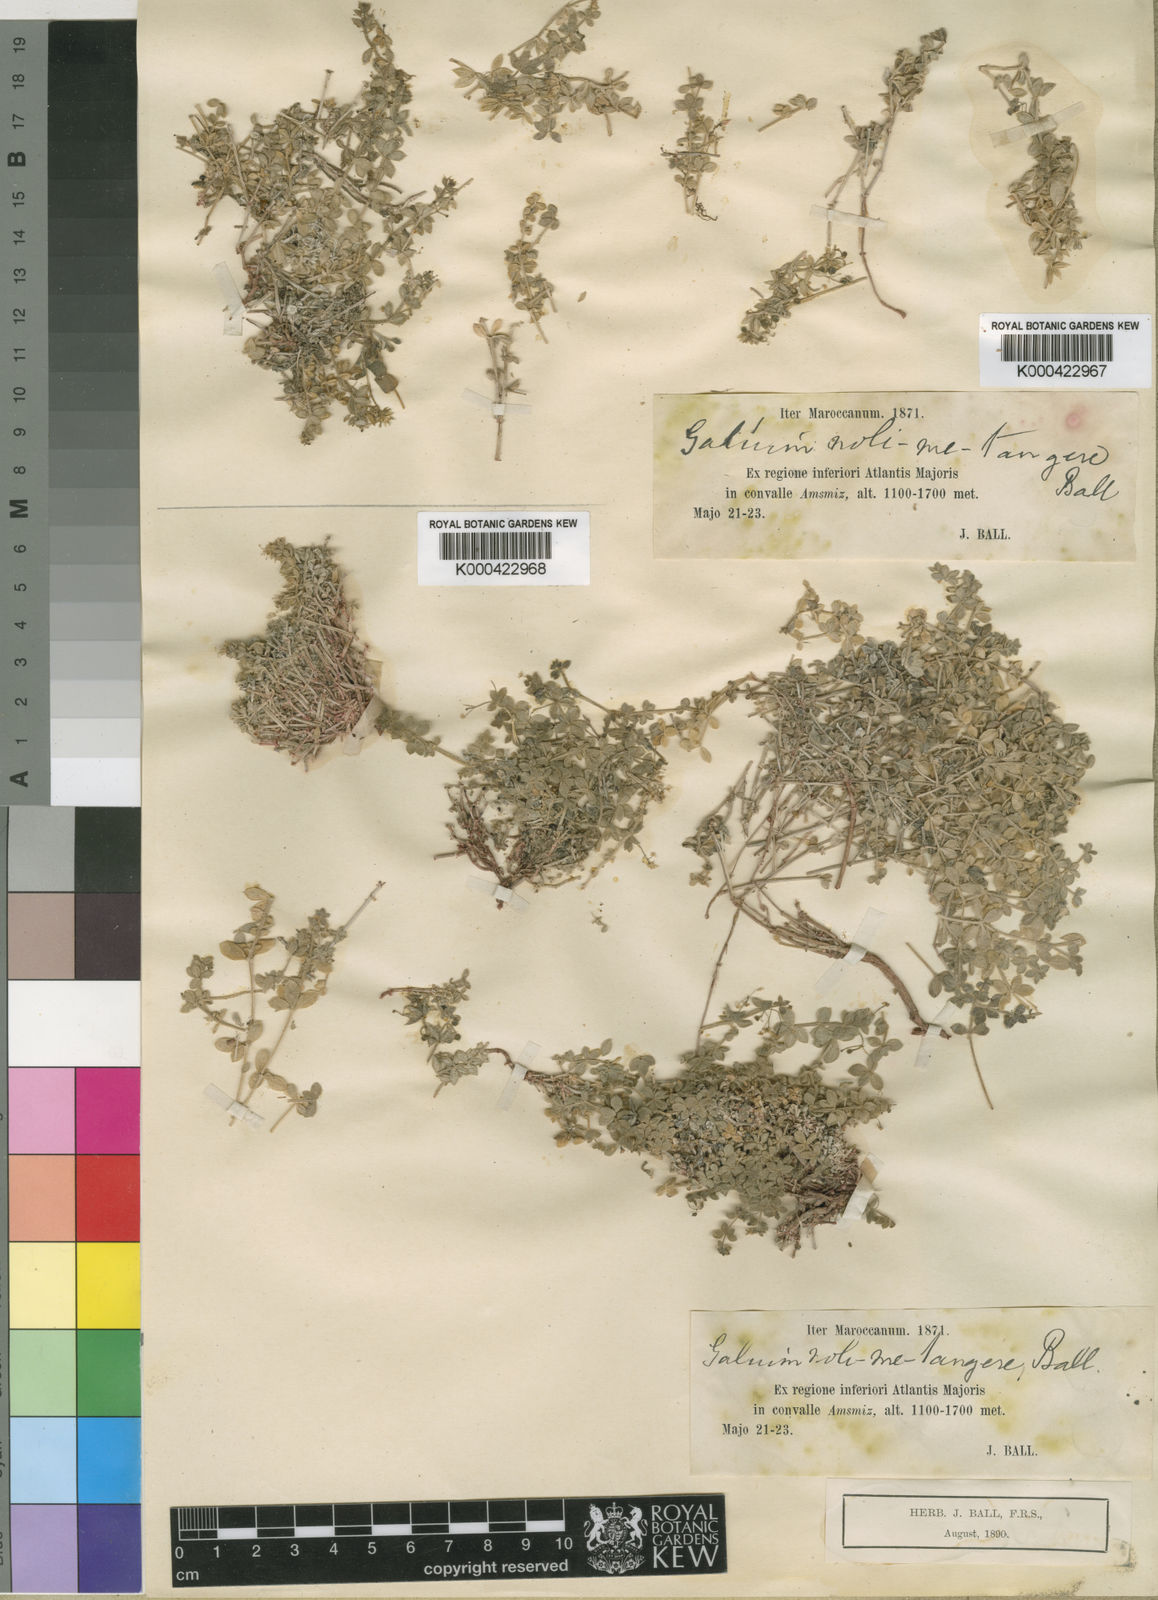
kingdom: Plantae
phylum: Tracheophyta
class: Magnoliopsida
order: Gentianales
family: Rubiaceae
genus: Galium
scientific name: Galium noli-tangere
